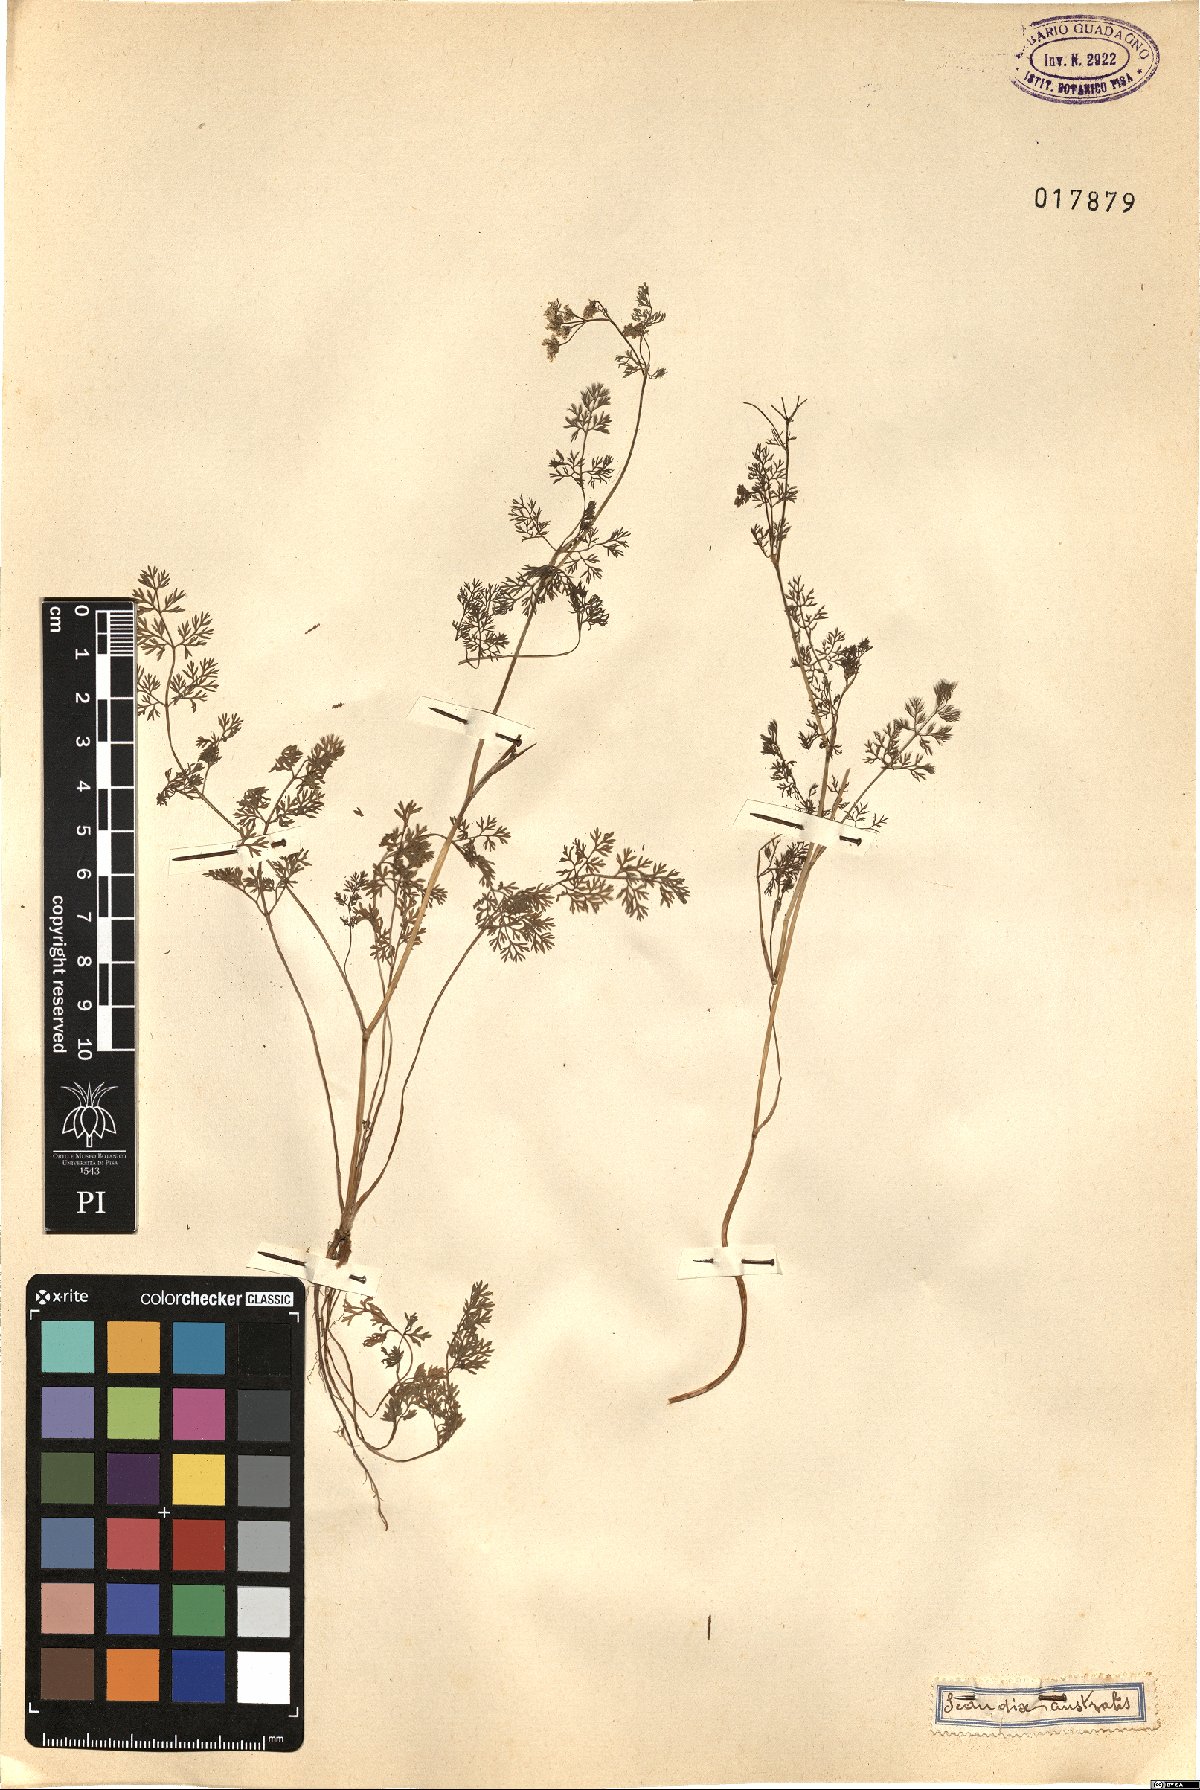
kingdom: Plantae
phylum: Tracheophyta
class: Magnoliopsida
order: Apiales
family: Apiaceae
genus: Scandix
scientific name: Scandix australis
